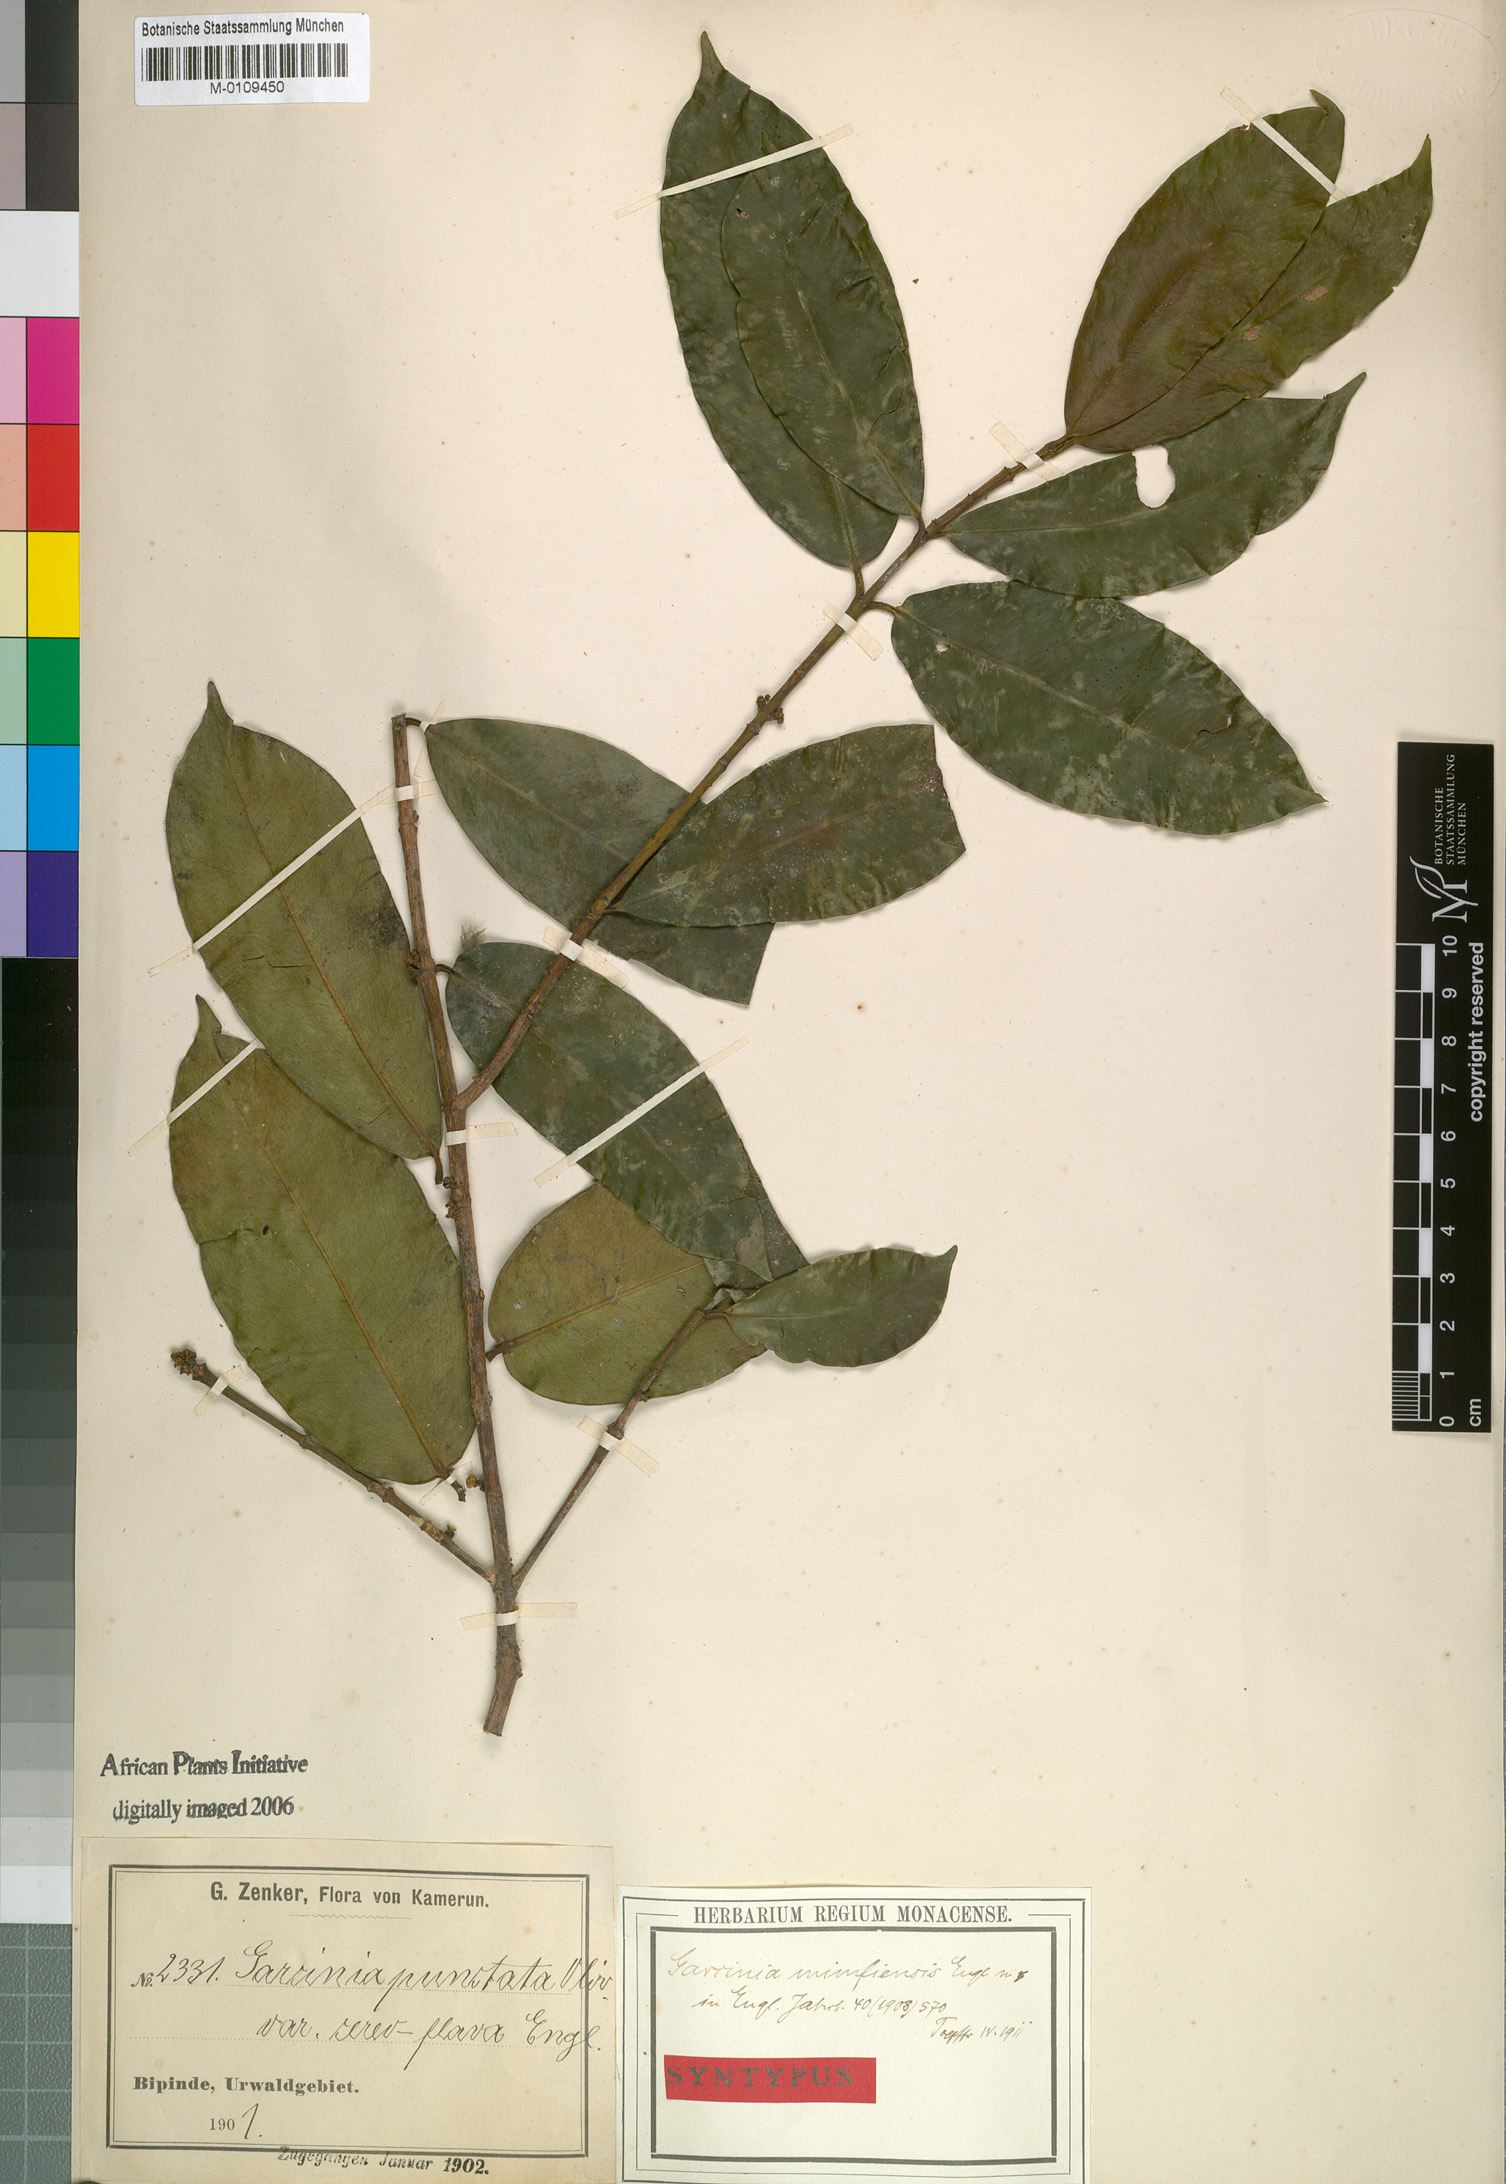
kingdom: Plantae
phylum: Tracheophyta
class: Magnoliopsida
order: Malpighiales
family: Clusiaceae
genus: Garcinia
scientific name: Garcinia epunctata
